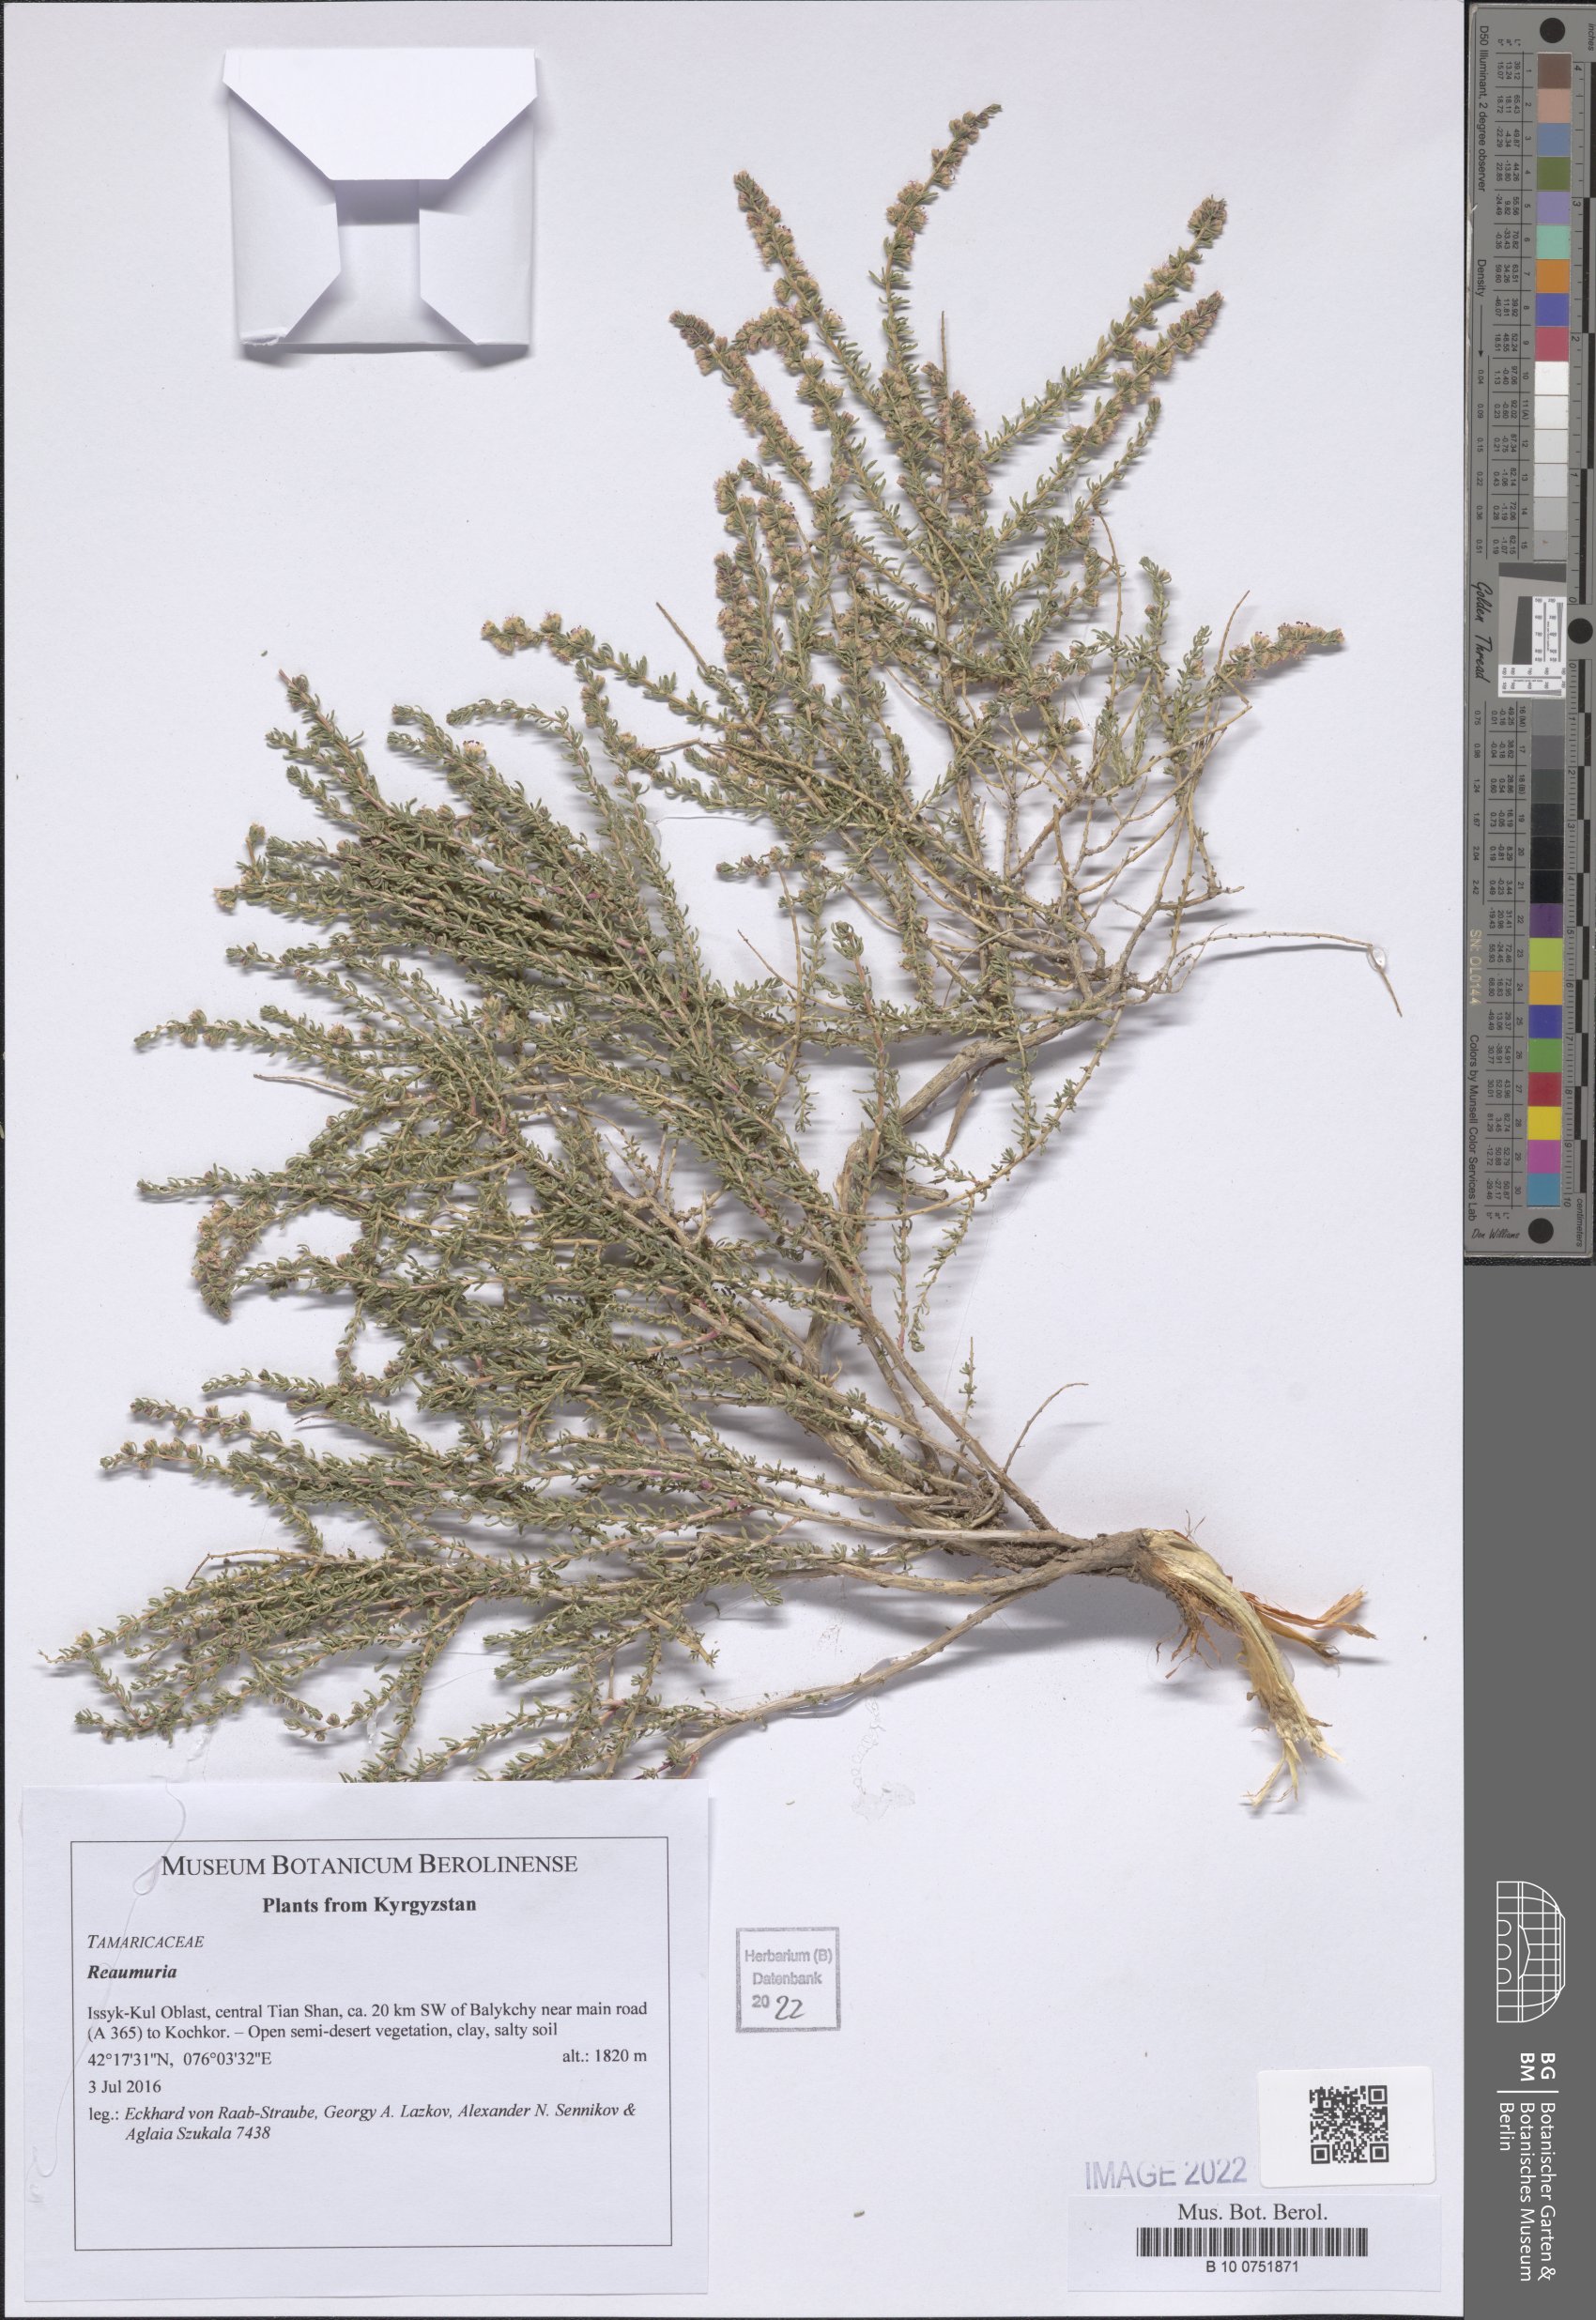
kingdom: Plantae
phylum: Tracheophyta
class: Magnoliopsida
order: Caryophyllales
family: Tamaricaceae
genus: Reaumuria
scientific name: Reaumuria
